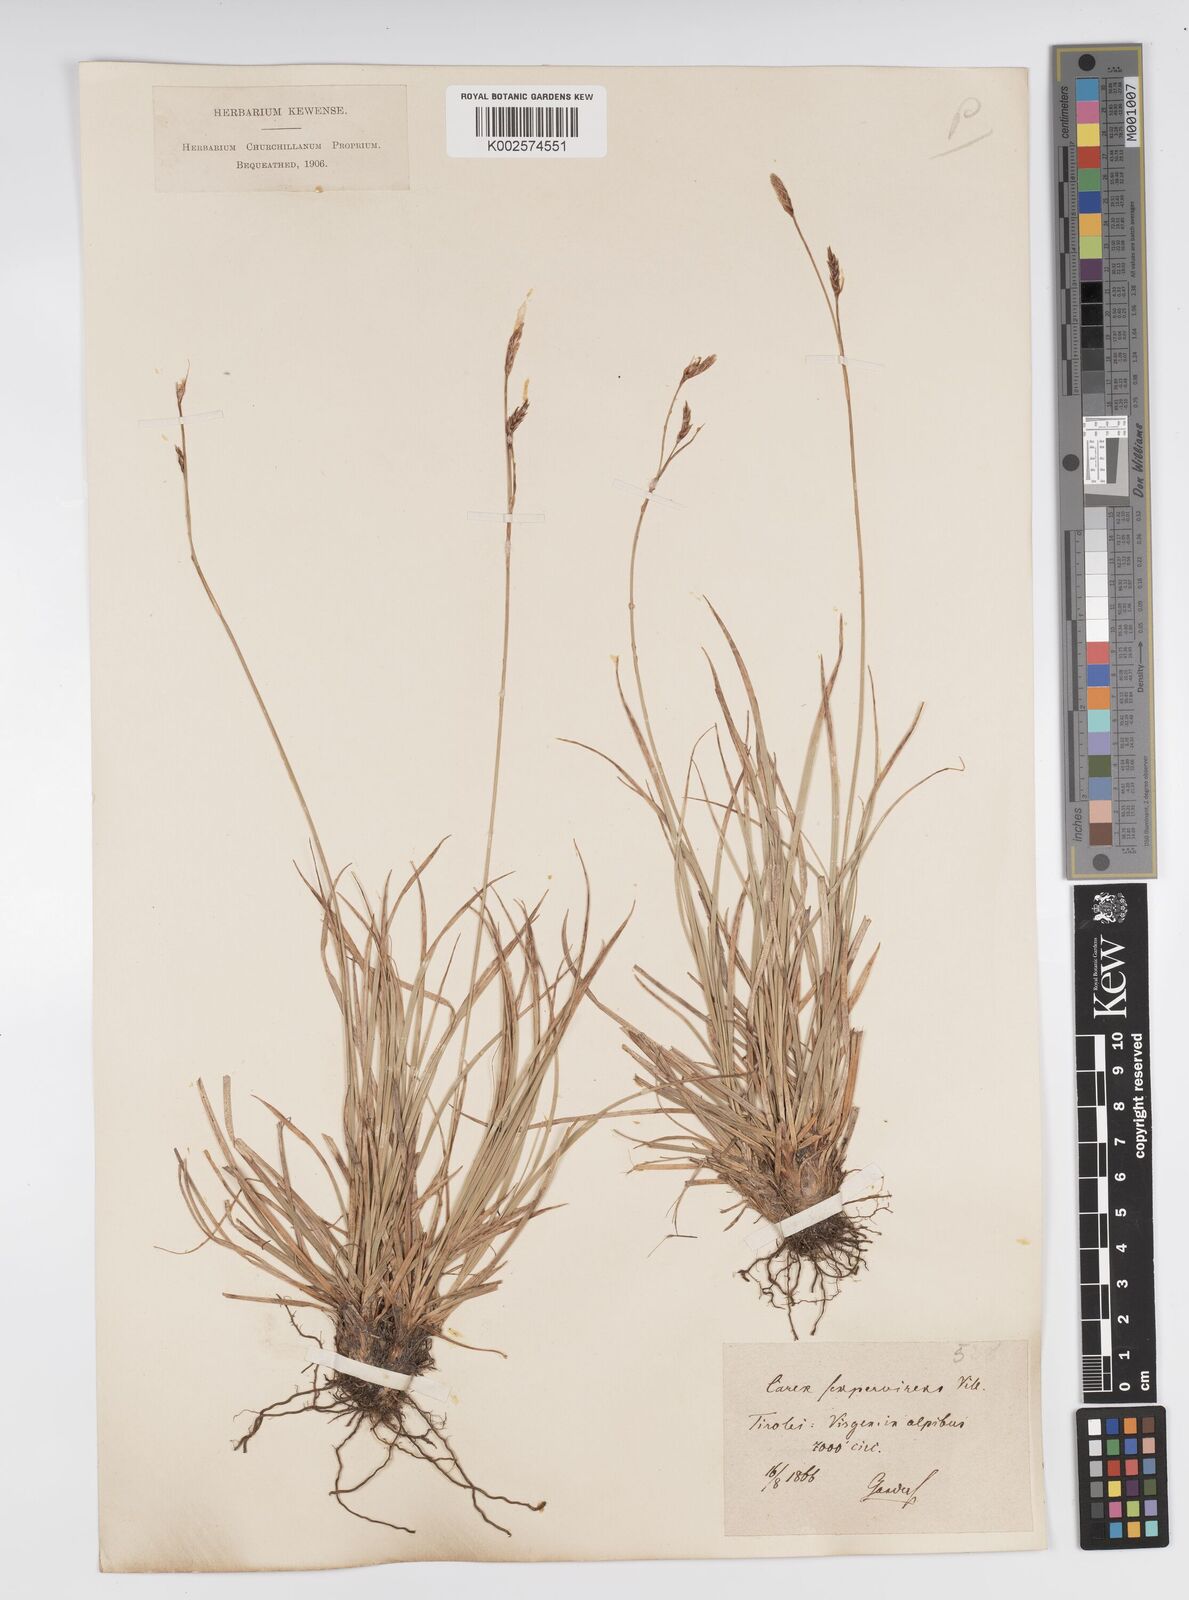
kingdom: Plantae
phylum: Tracheophyta
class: Liliopsida
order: Poales
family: Cyperaceae
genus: Carex
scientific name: Carex sempervirens
